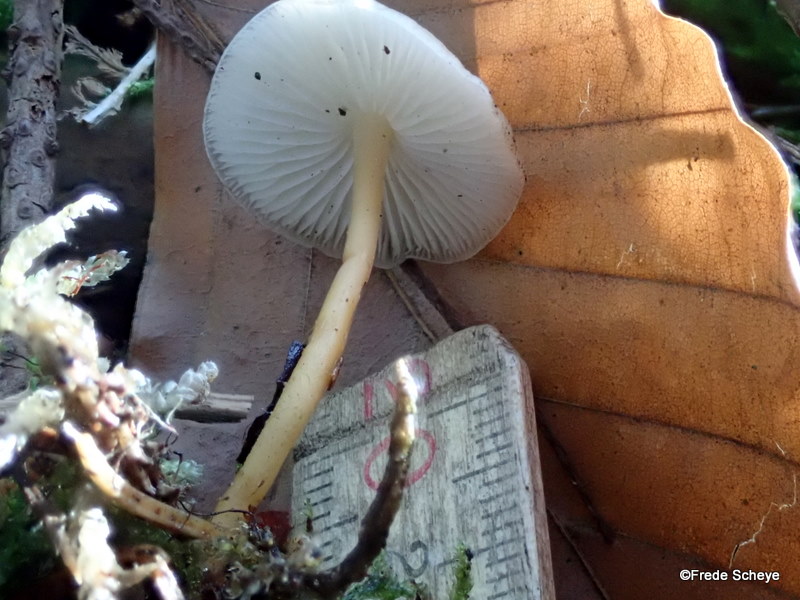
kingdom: Fungi
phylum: Basidiomycota
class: Agaricomycetes
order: Agaricales
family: Physalacriaceae
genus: Strobilurus
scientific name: Strobilurus esculentus
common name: gran-koglehat
